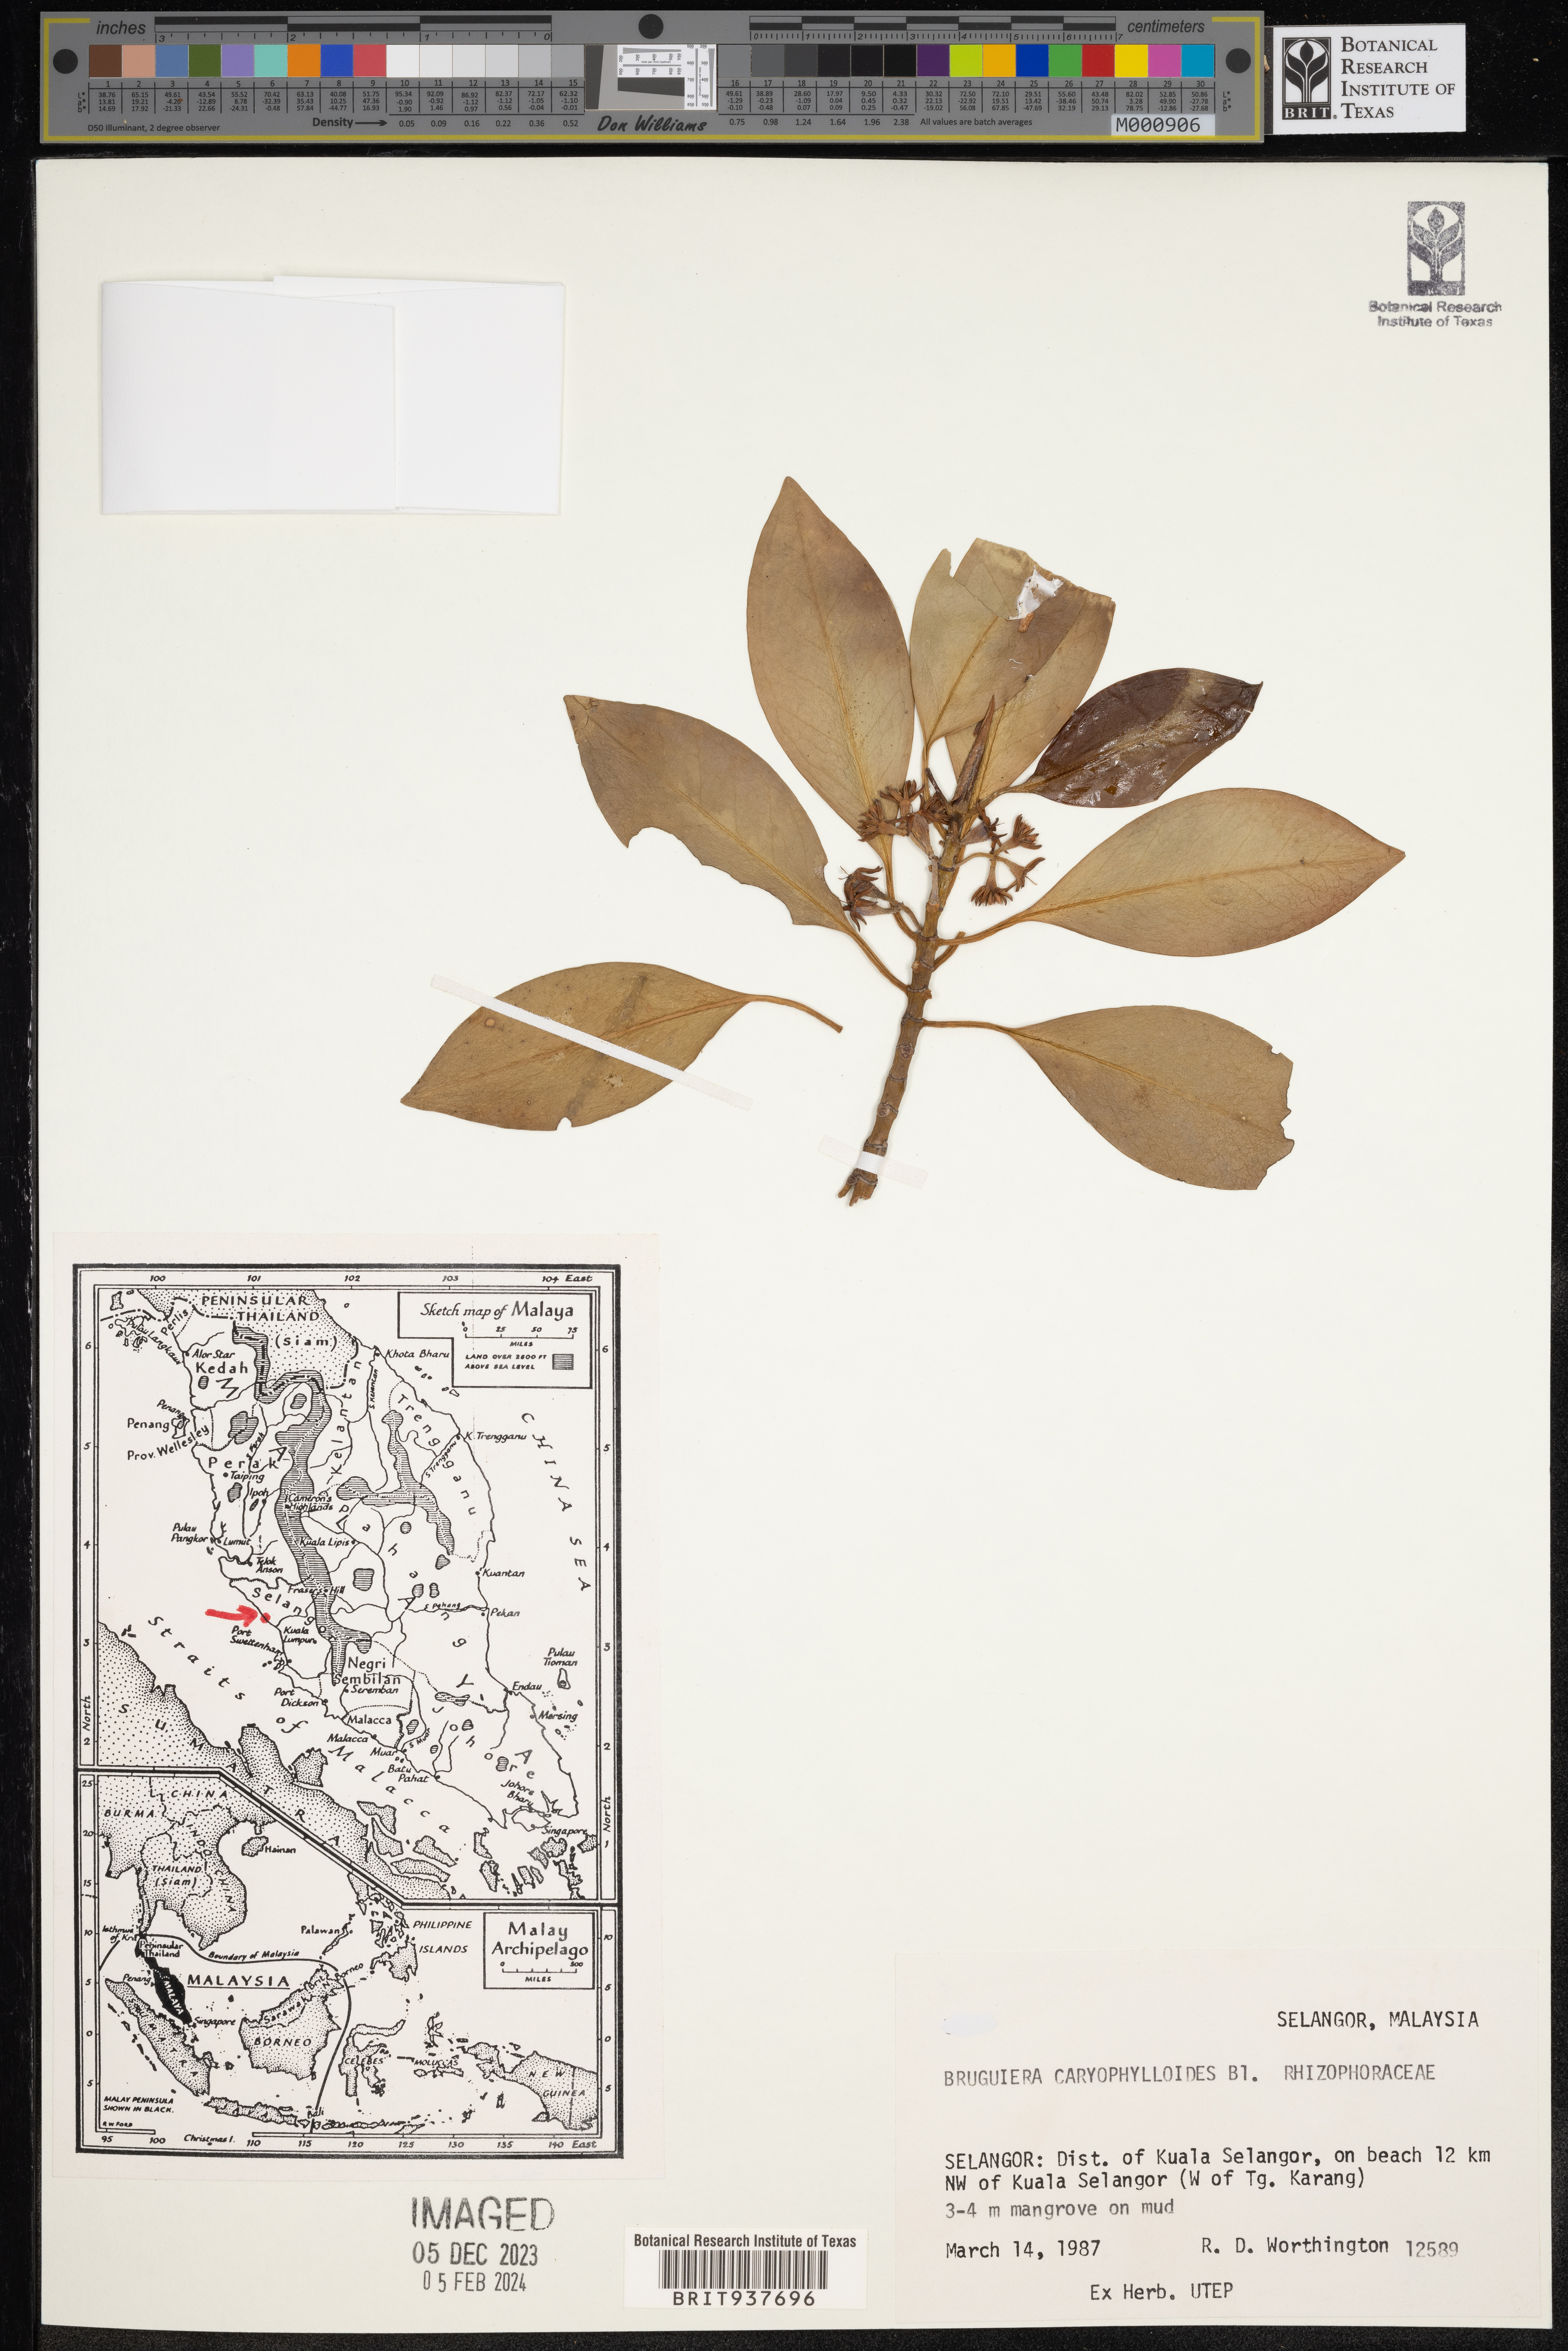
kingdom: Plantae
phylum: Tracheophyta
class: Magnoliopsida
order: Malpighiales
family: Rhizophoraceae
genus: Bruguiera
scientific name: Bruguiera
